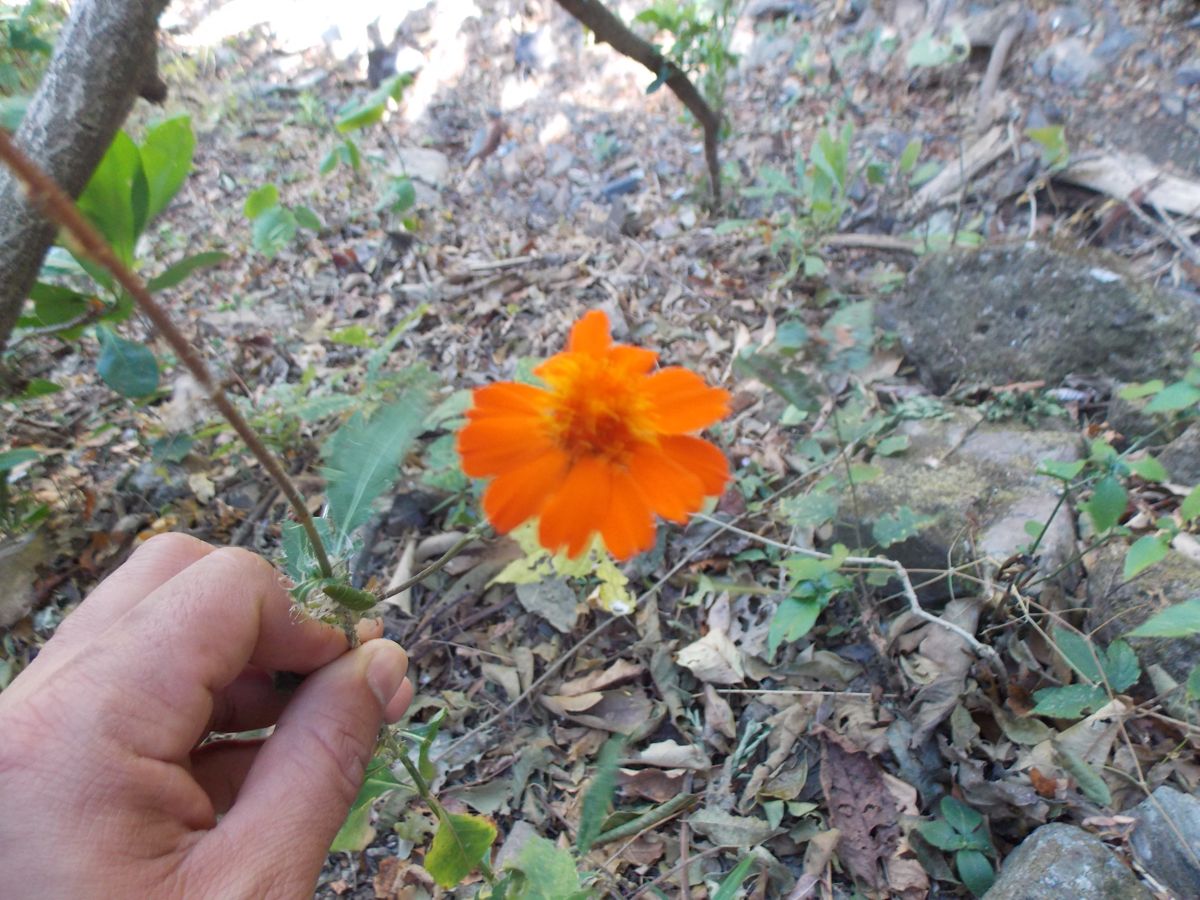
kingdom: Plantae
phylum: Tracheophyta
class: Magnoliopsida
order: Asterales
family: Asteraceae
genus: Comaclinium
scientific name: Comaclinium montanum
